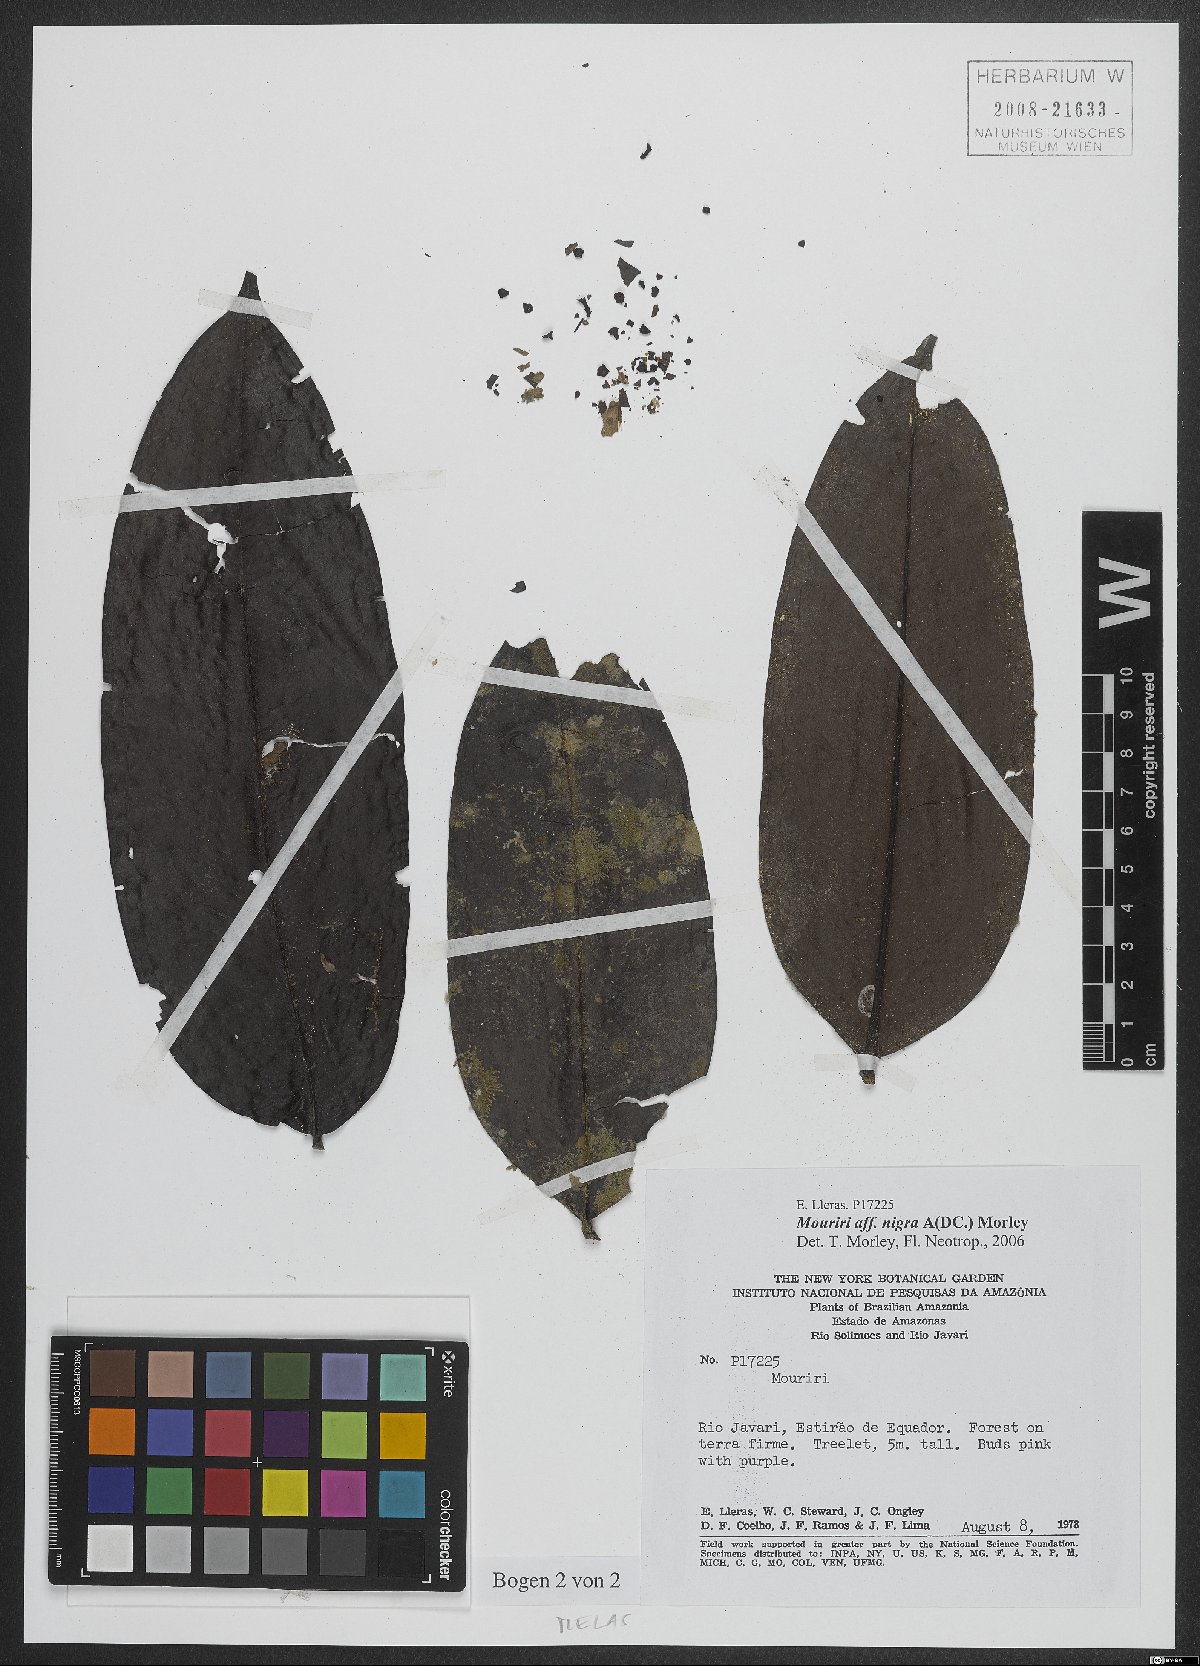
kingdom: Plantae
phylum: Tracheophyta
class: Magnoliopsida
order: Myrtales
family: Melastomataceae
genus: Mouriri
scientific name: Mouriri nigra
